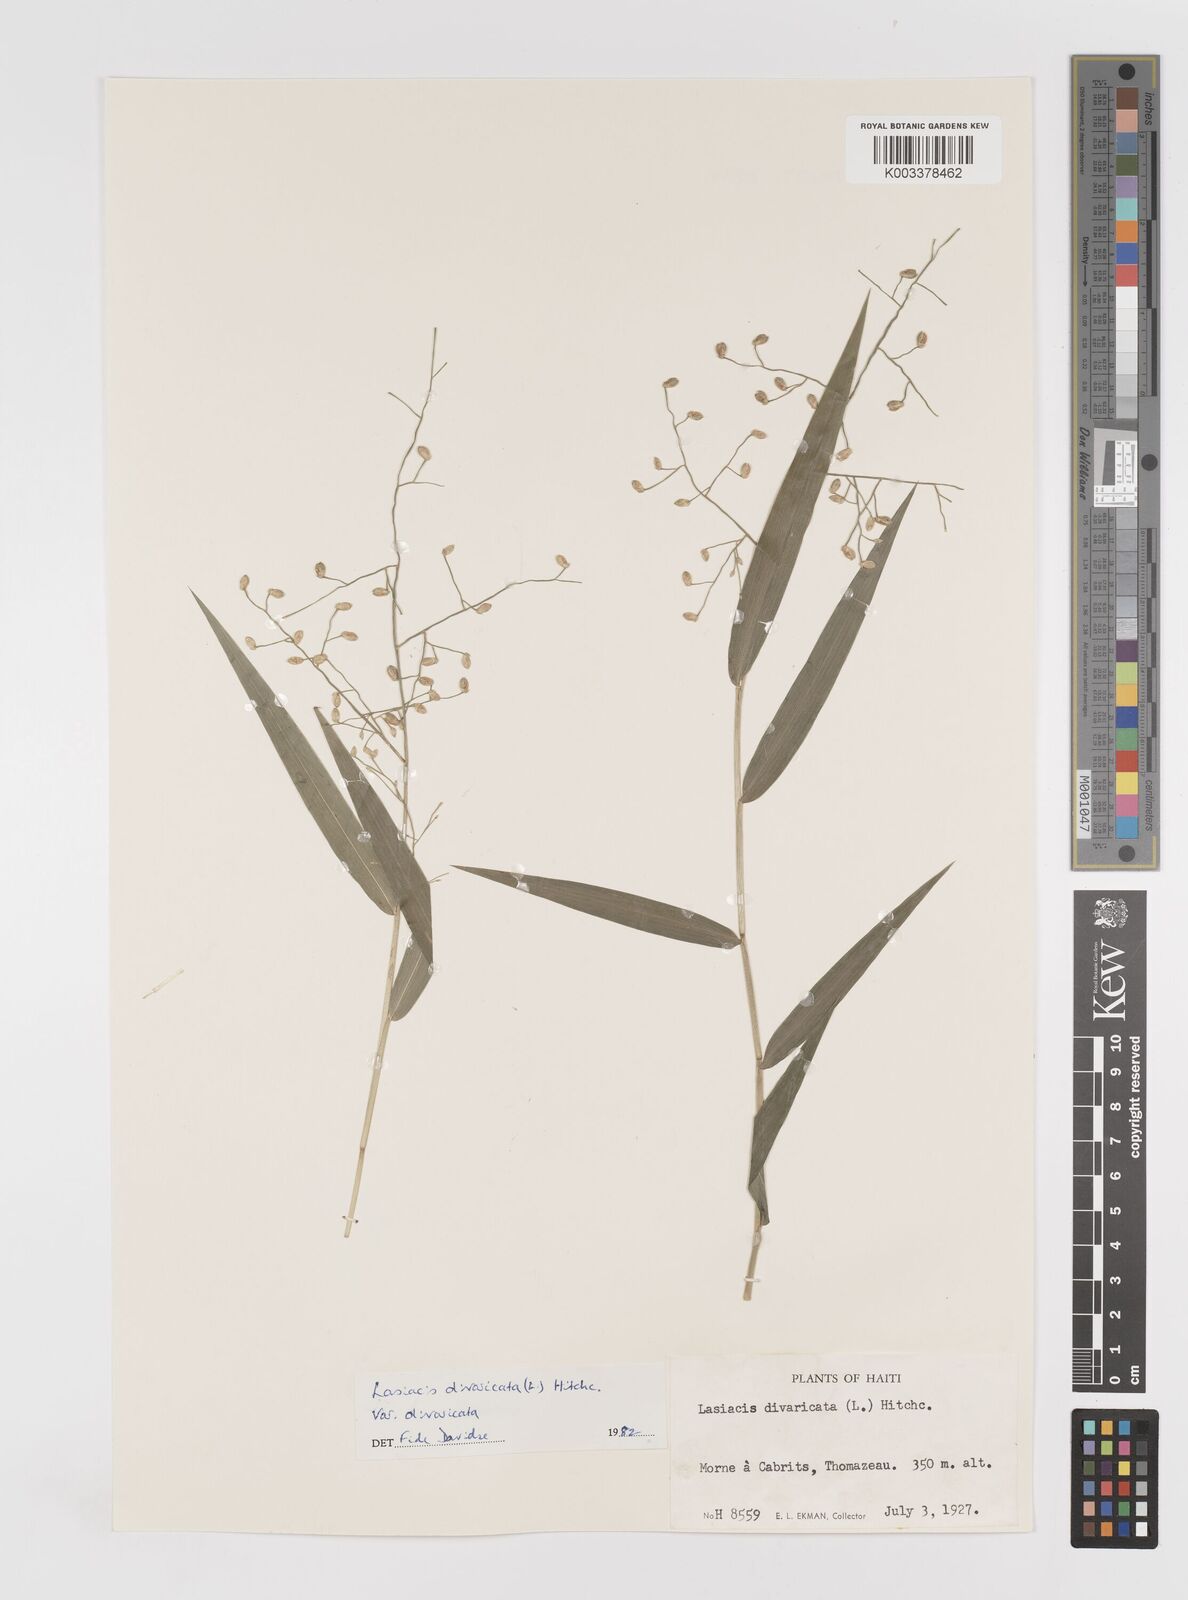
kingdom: Plantae
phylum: Tracheophyta
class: Liliopsida
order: Poales
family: Poaceae
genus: Lasiacis
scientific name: Lasiacis divaricata
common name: Smallcane
